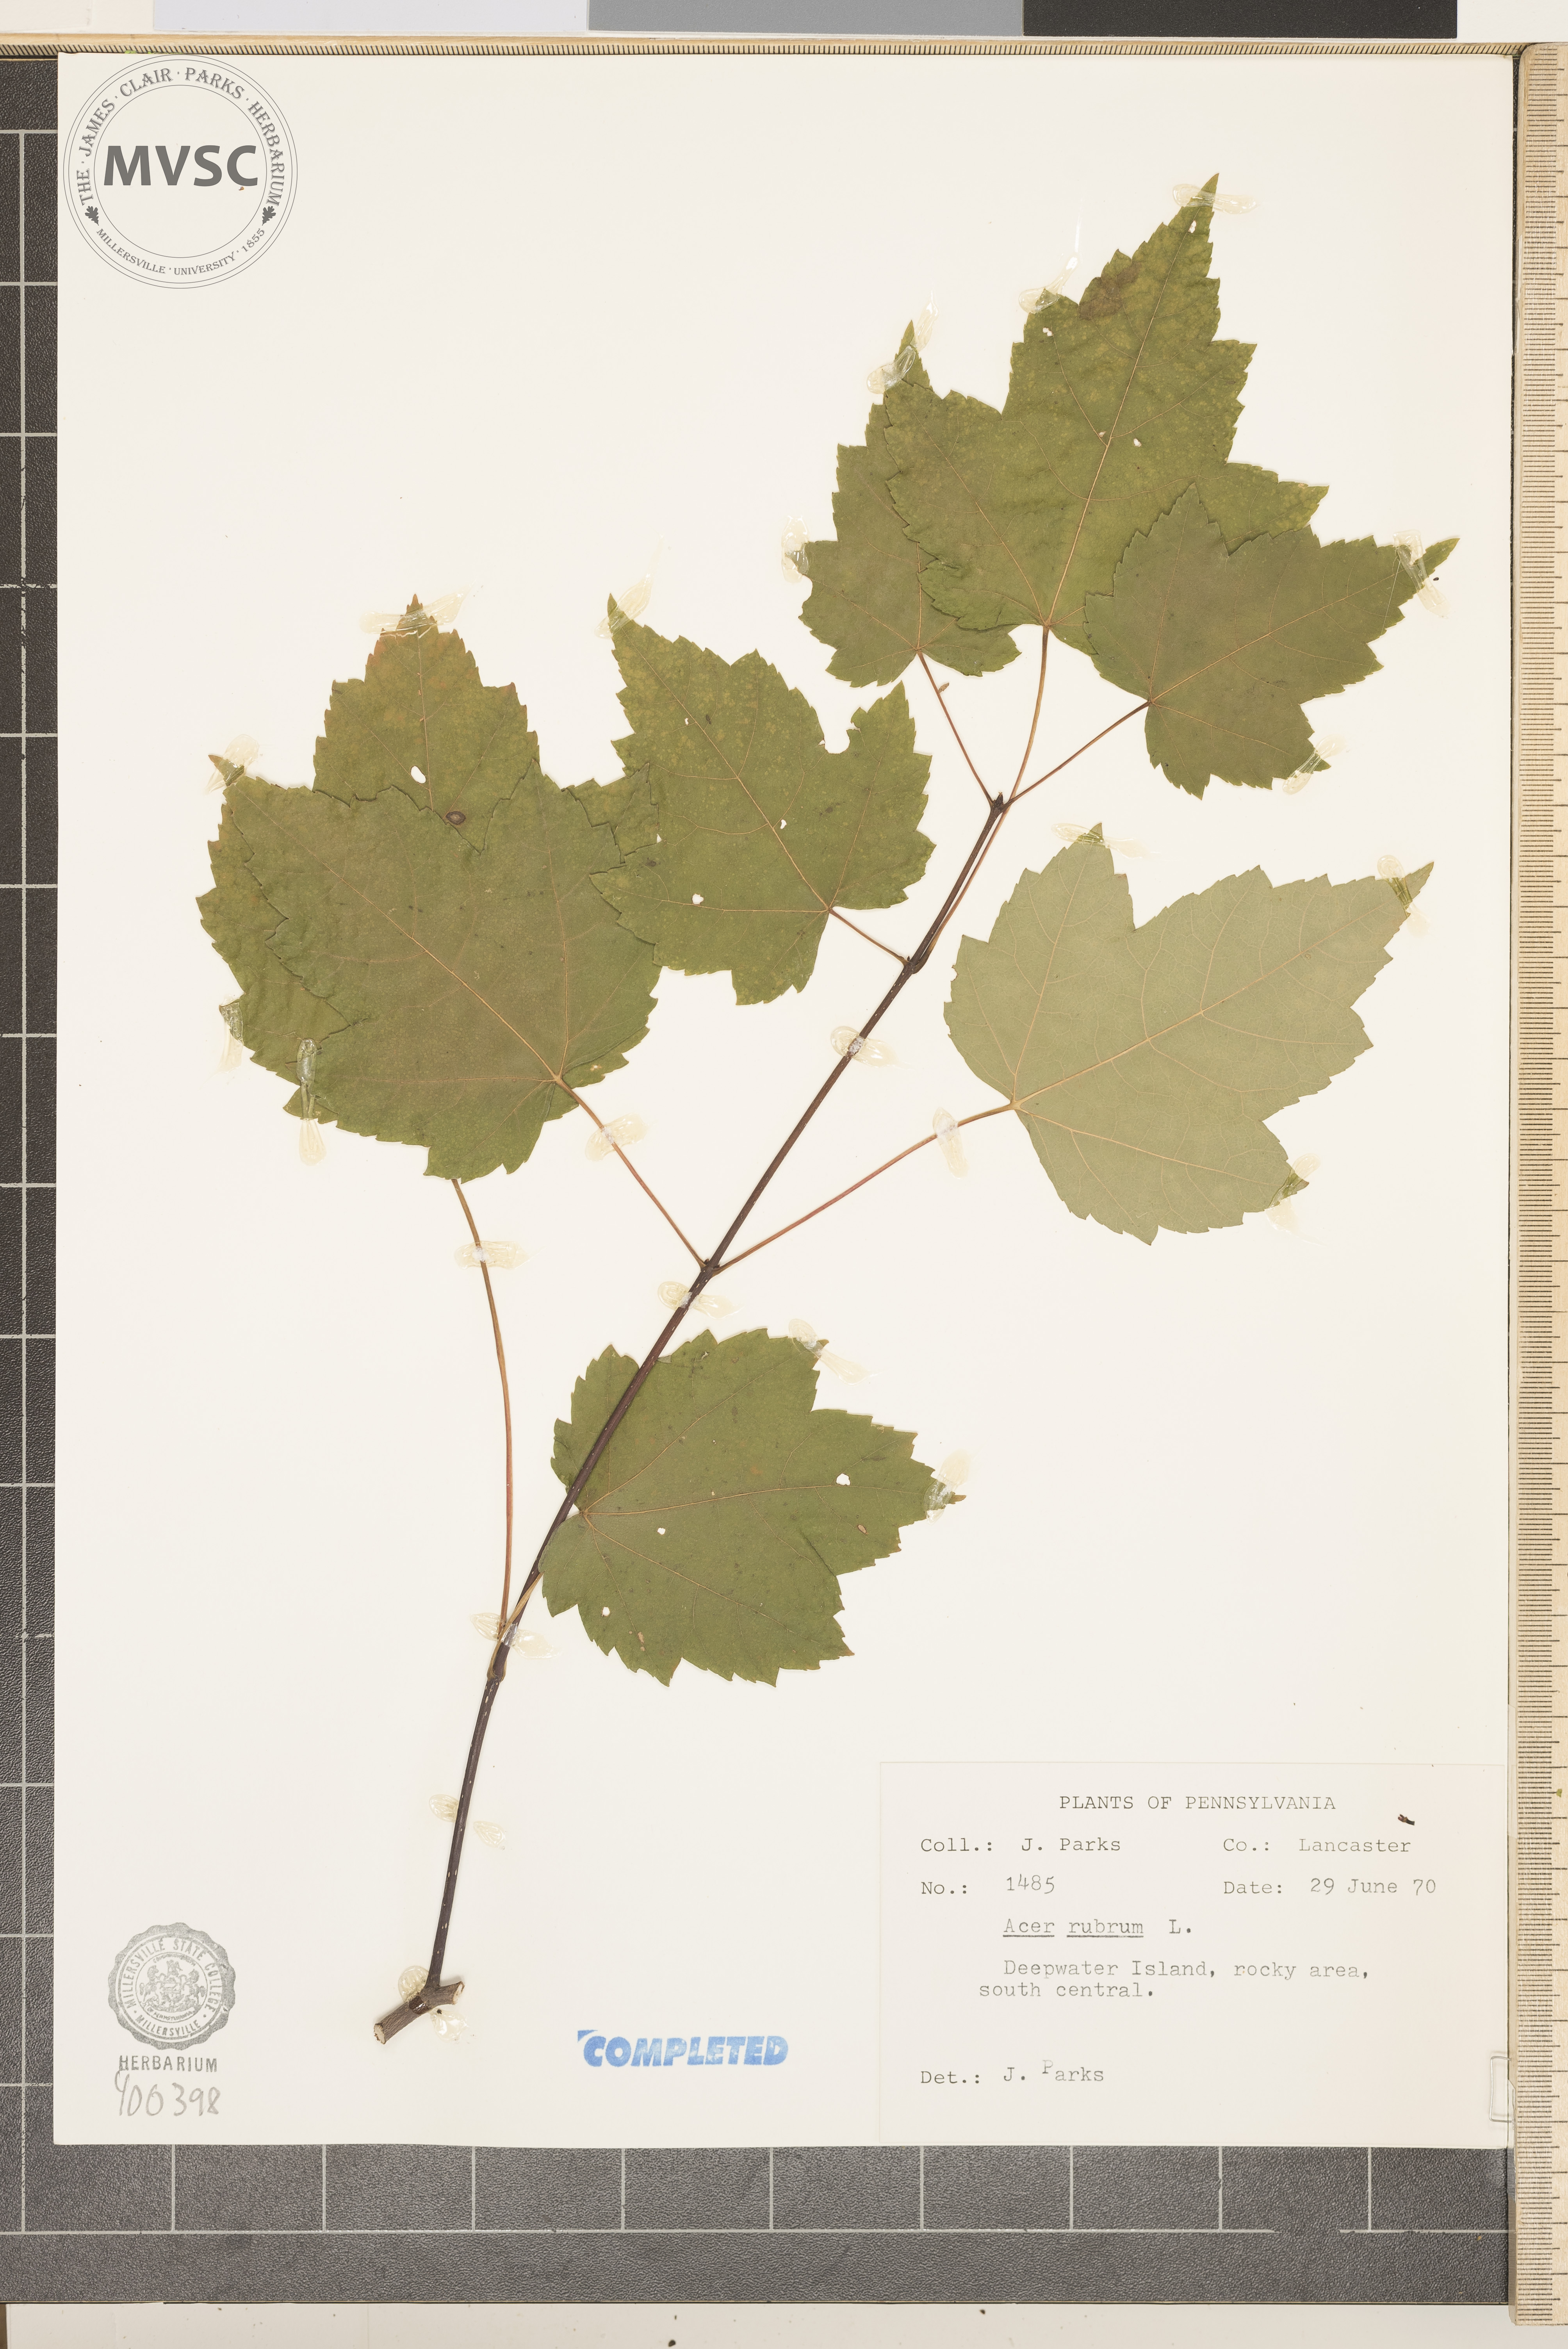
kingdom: Plantae
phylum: Tracheophyta
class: Magnoliopsida
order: Sapindales
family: Sapindaceae
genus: Acer
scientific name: Acer rubrum
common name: red maple
